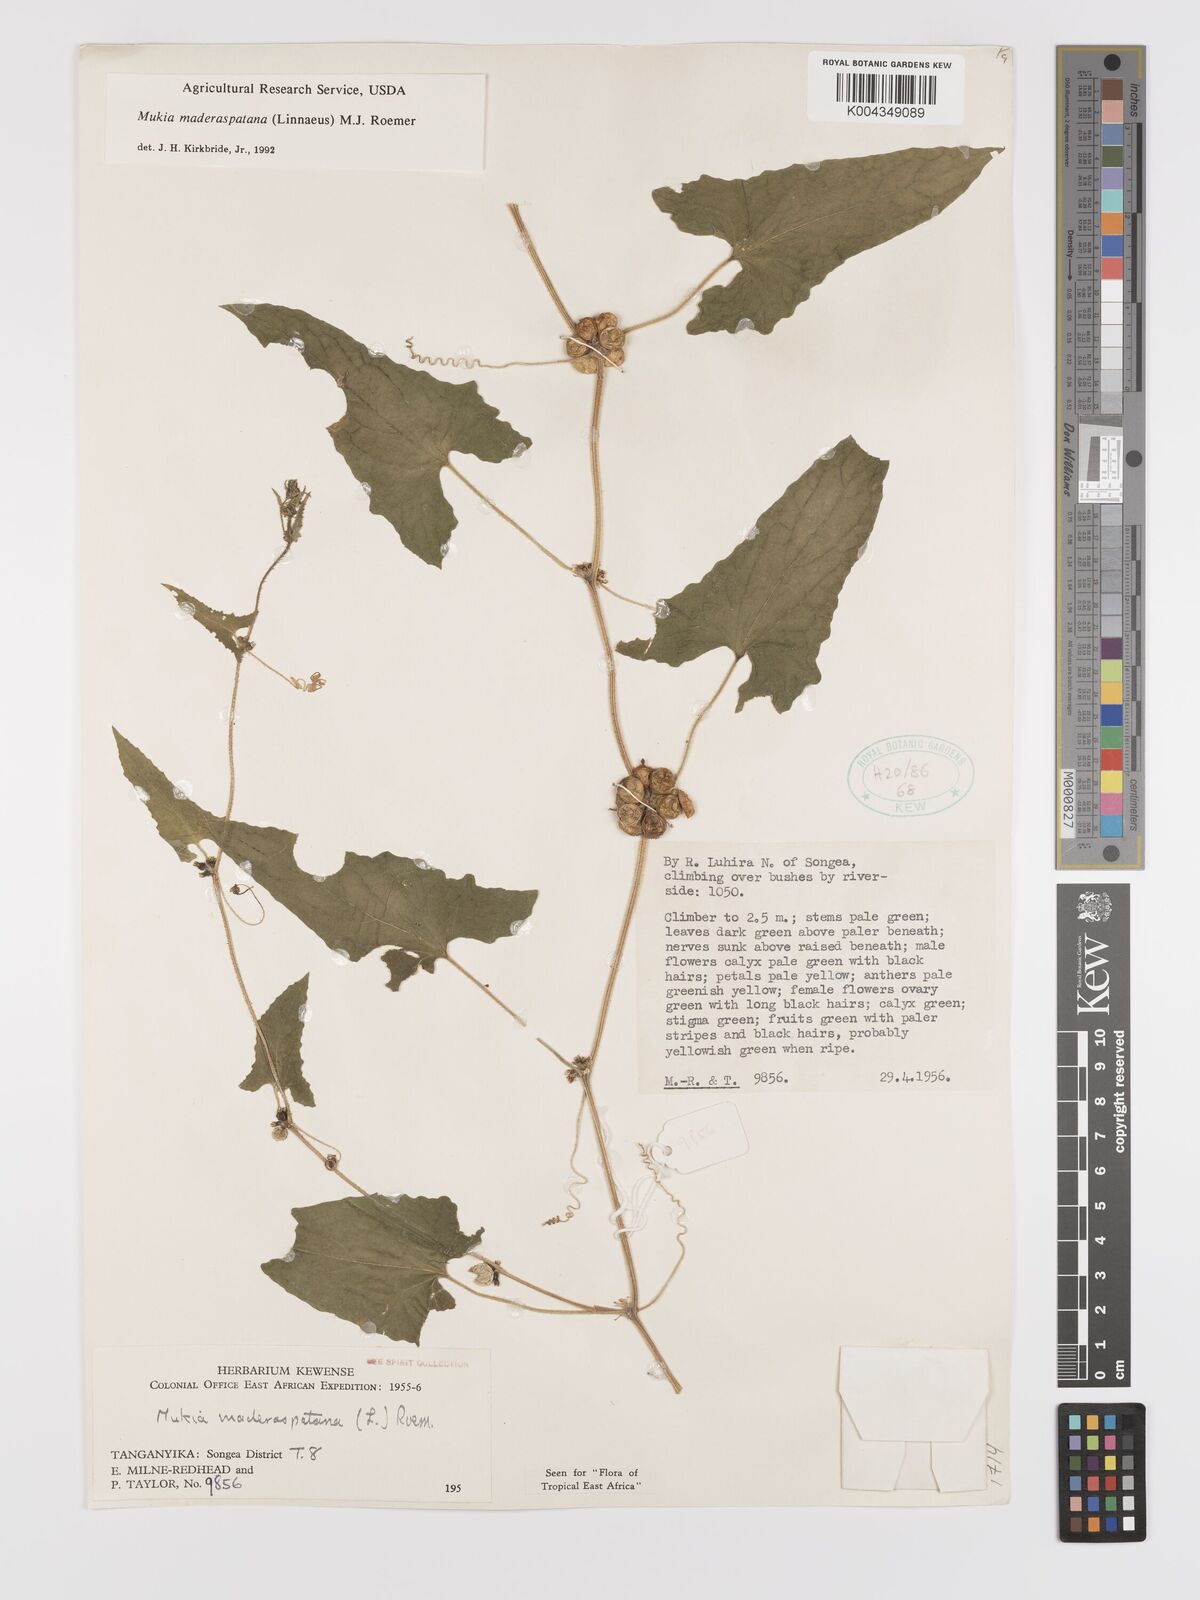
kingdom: Plantae
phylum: Tracheophyta
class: Magnoliopsida
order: Cucurbitales
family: Cucurbitaceae
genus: Cucumis
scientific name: Cucumis maderaspatanus
